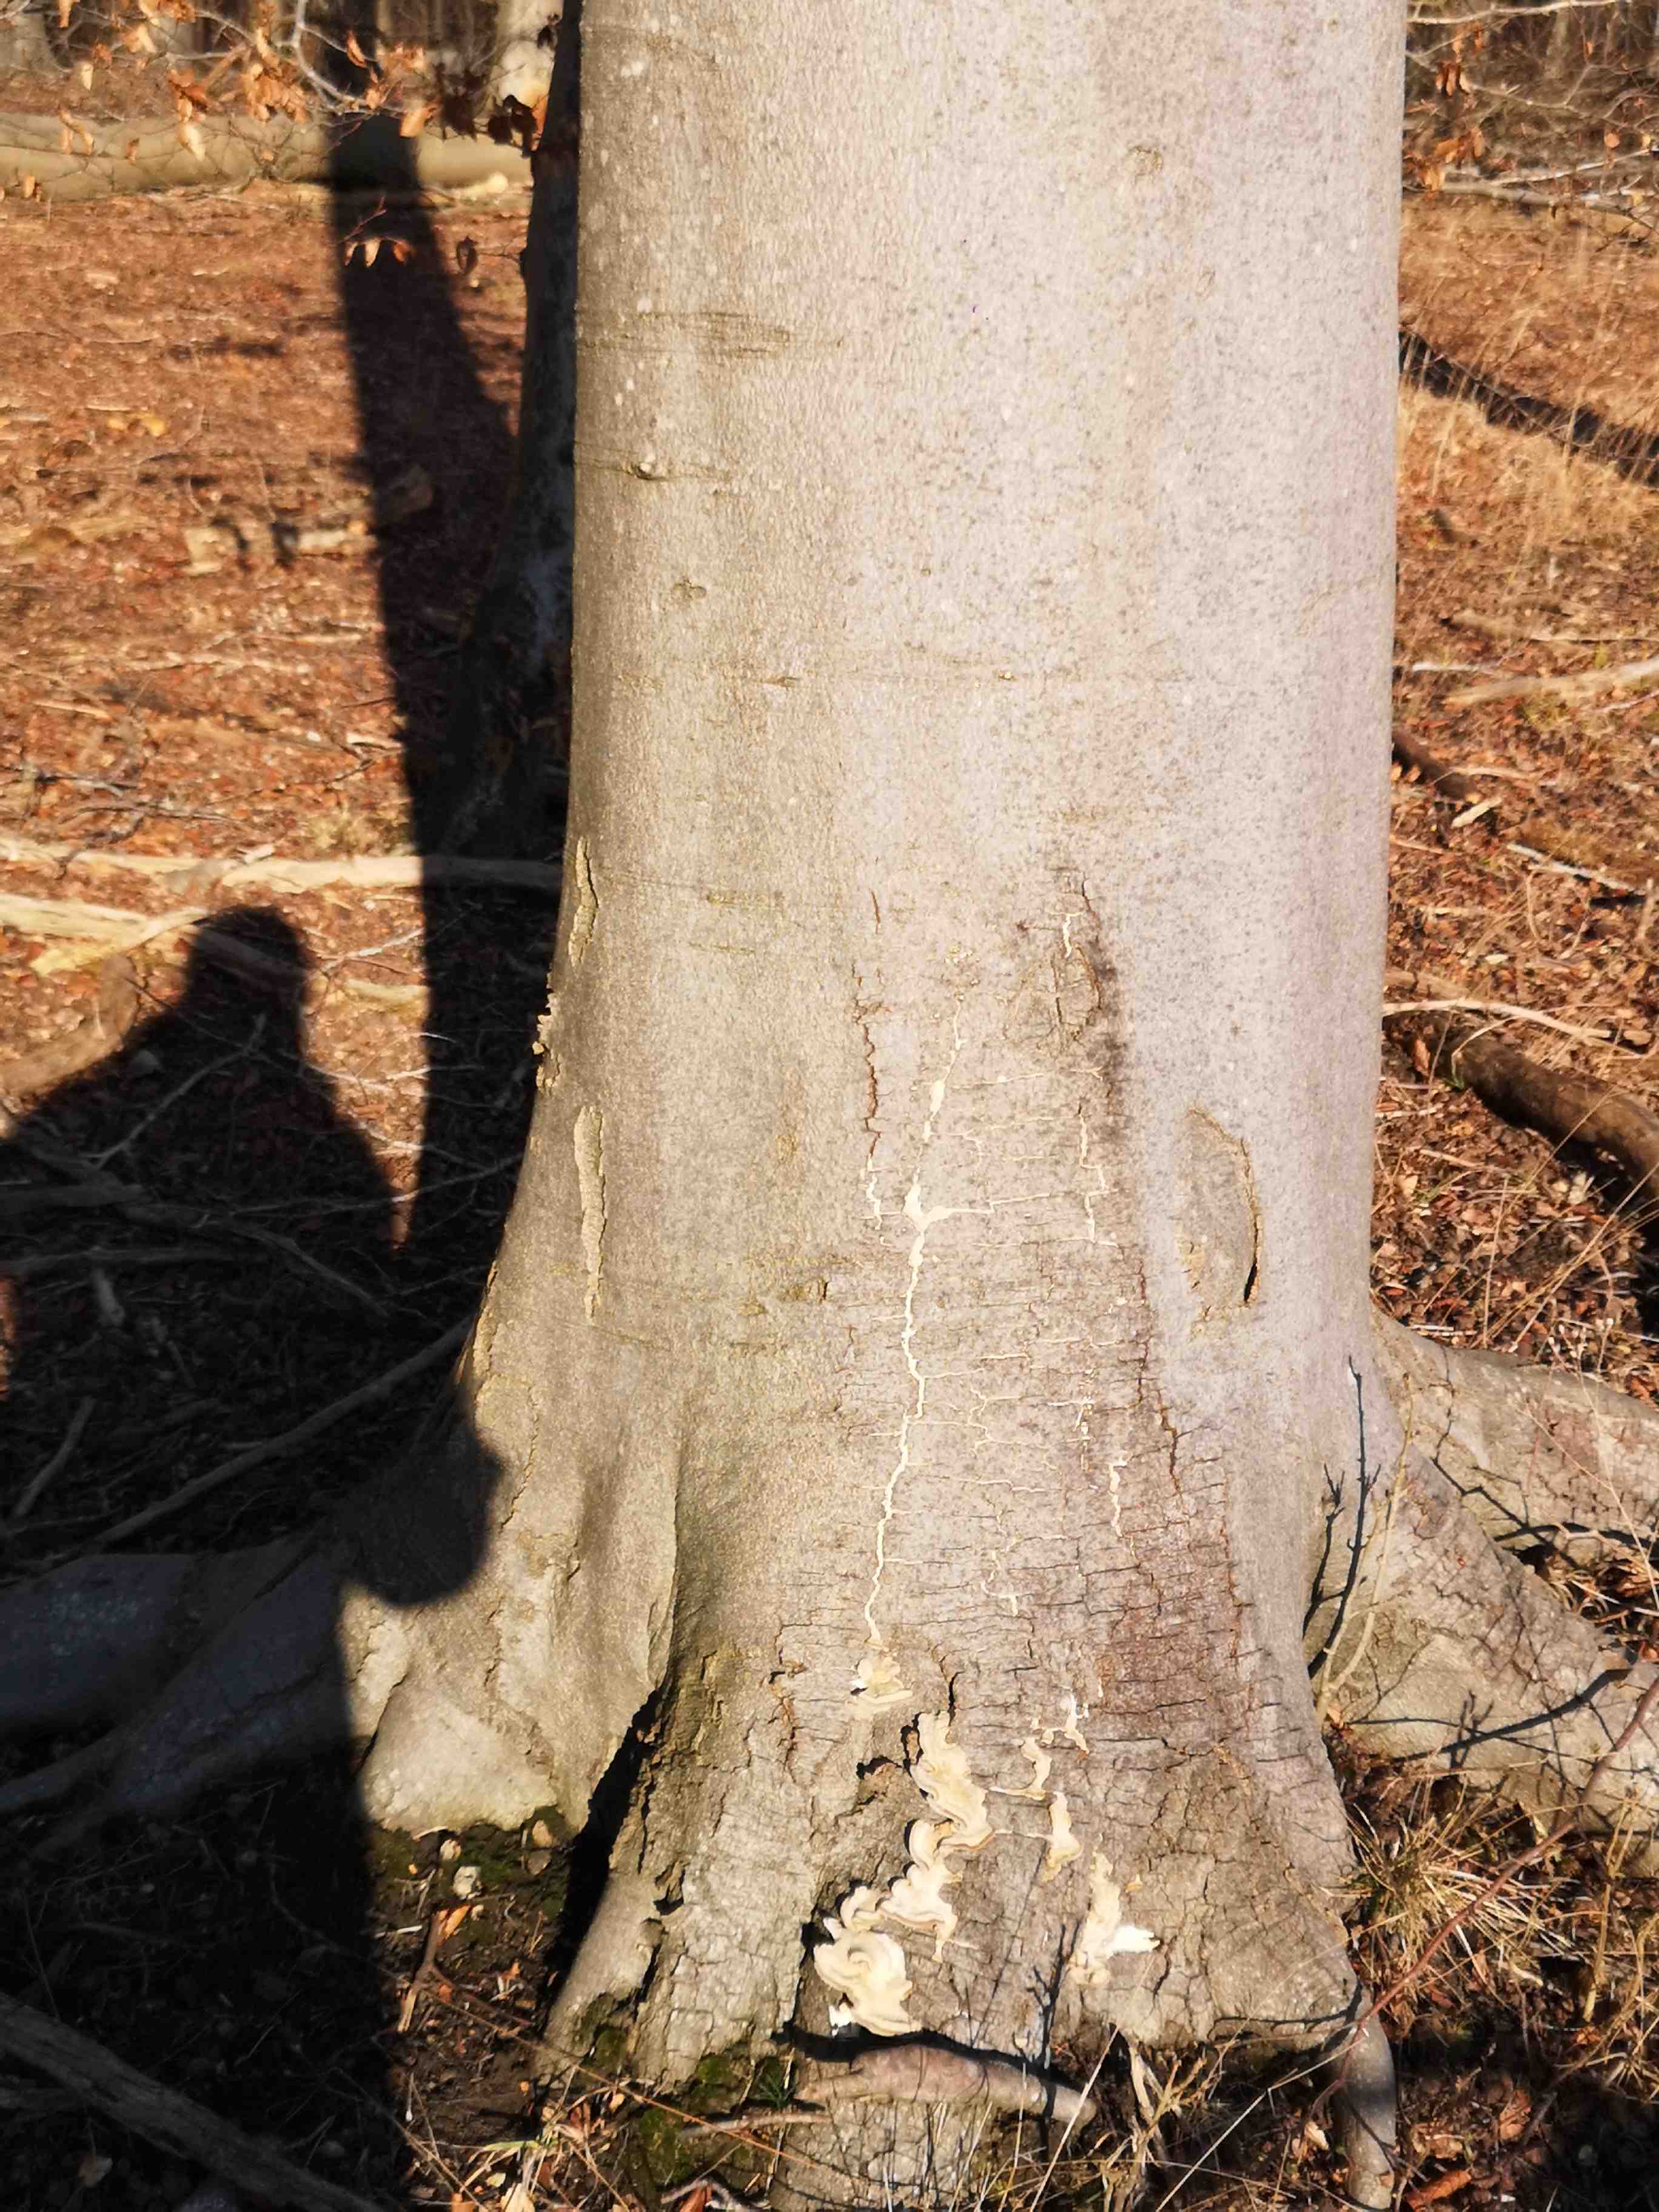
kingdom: Fungi
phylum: Basidiomycota
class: Agaricomycetes
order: Polyporales
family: Polyporaceae
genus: Trametes
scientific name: Trametes hirsuta
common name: håret læderporesvamp
